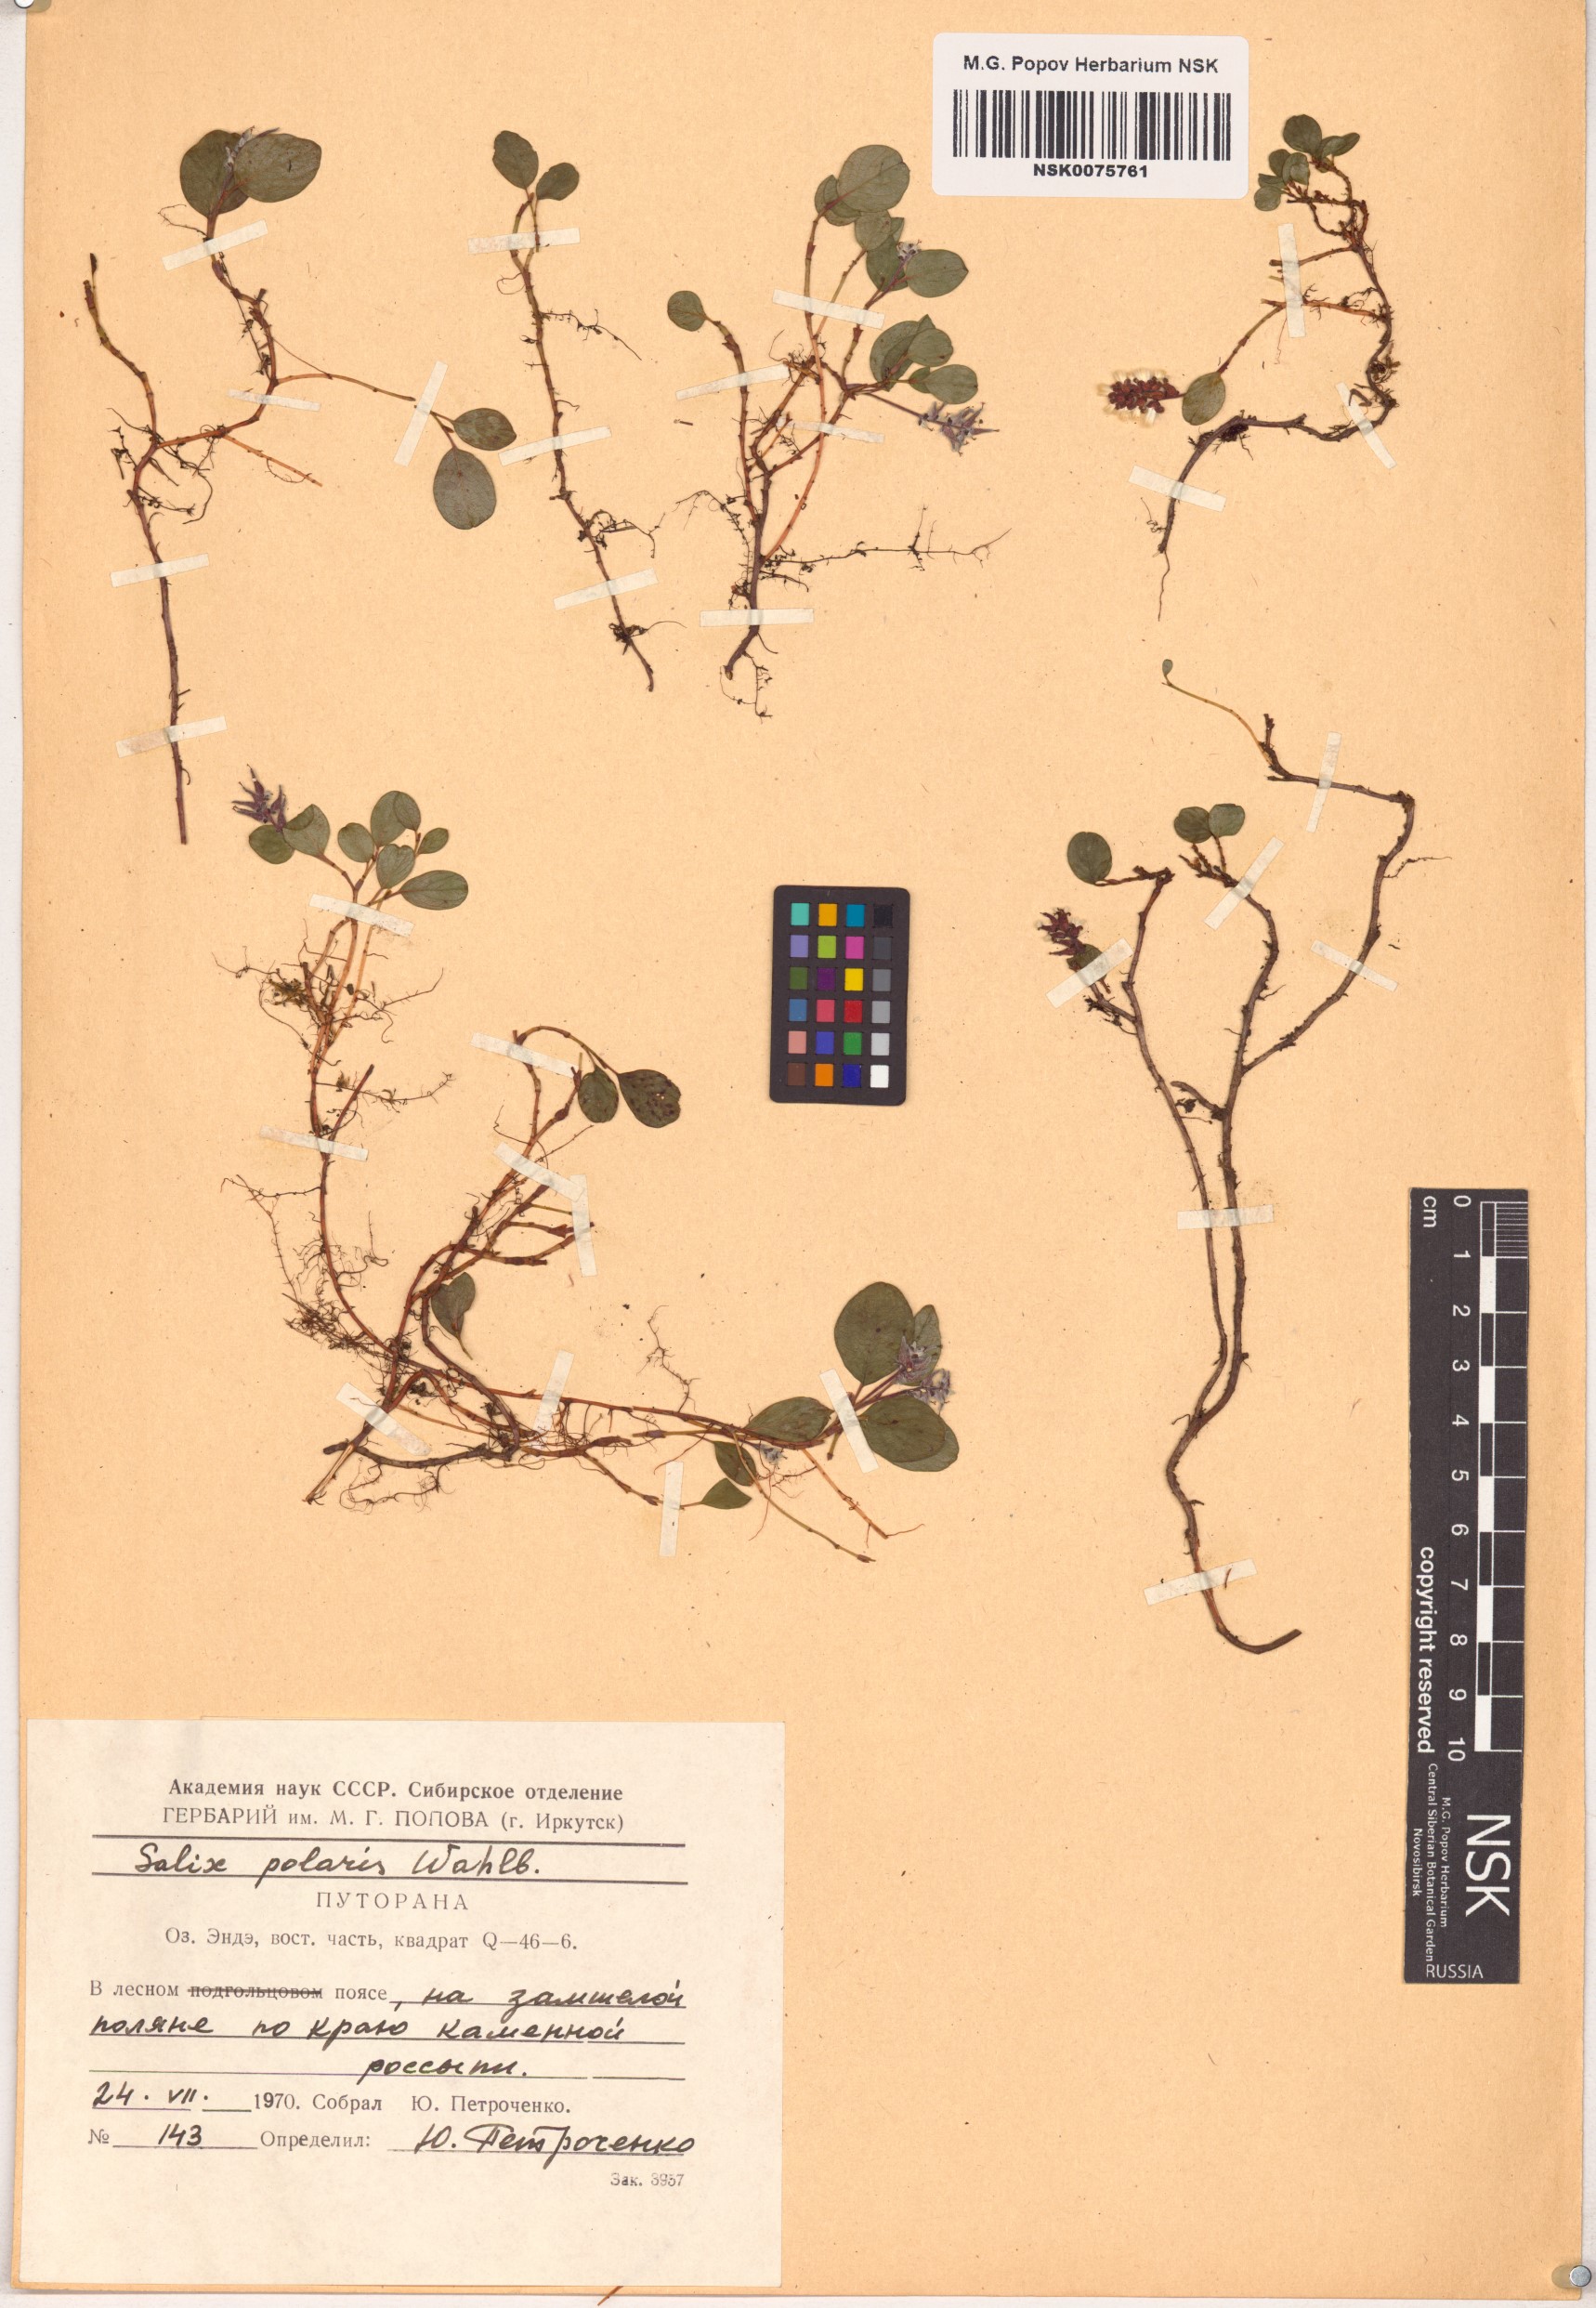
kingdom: Plantae
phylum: Tracheophyta
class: Magnoliopsida
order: Malpighiales
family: Salicaceae
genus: Salix
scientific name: Salix polaris
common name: Polar willow
